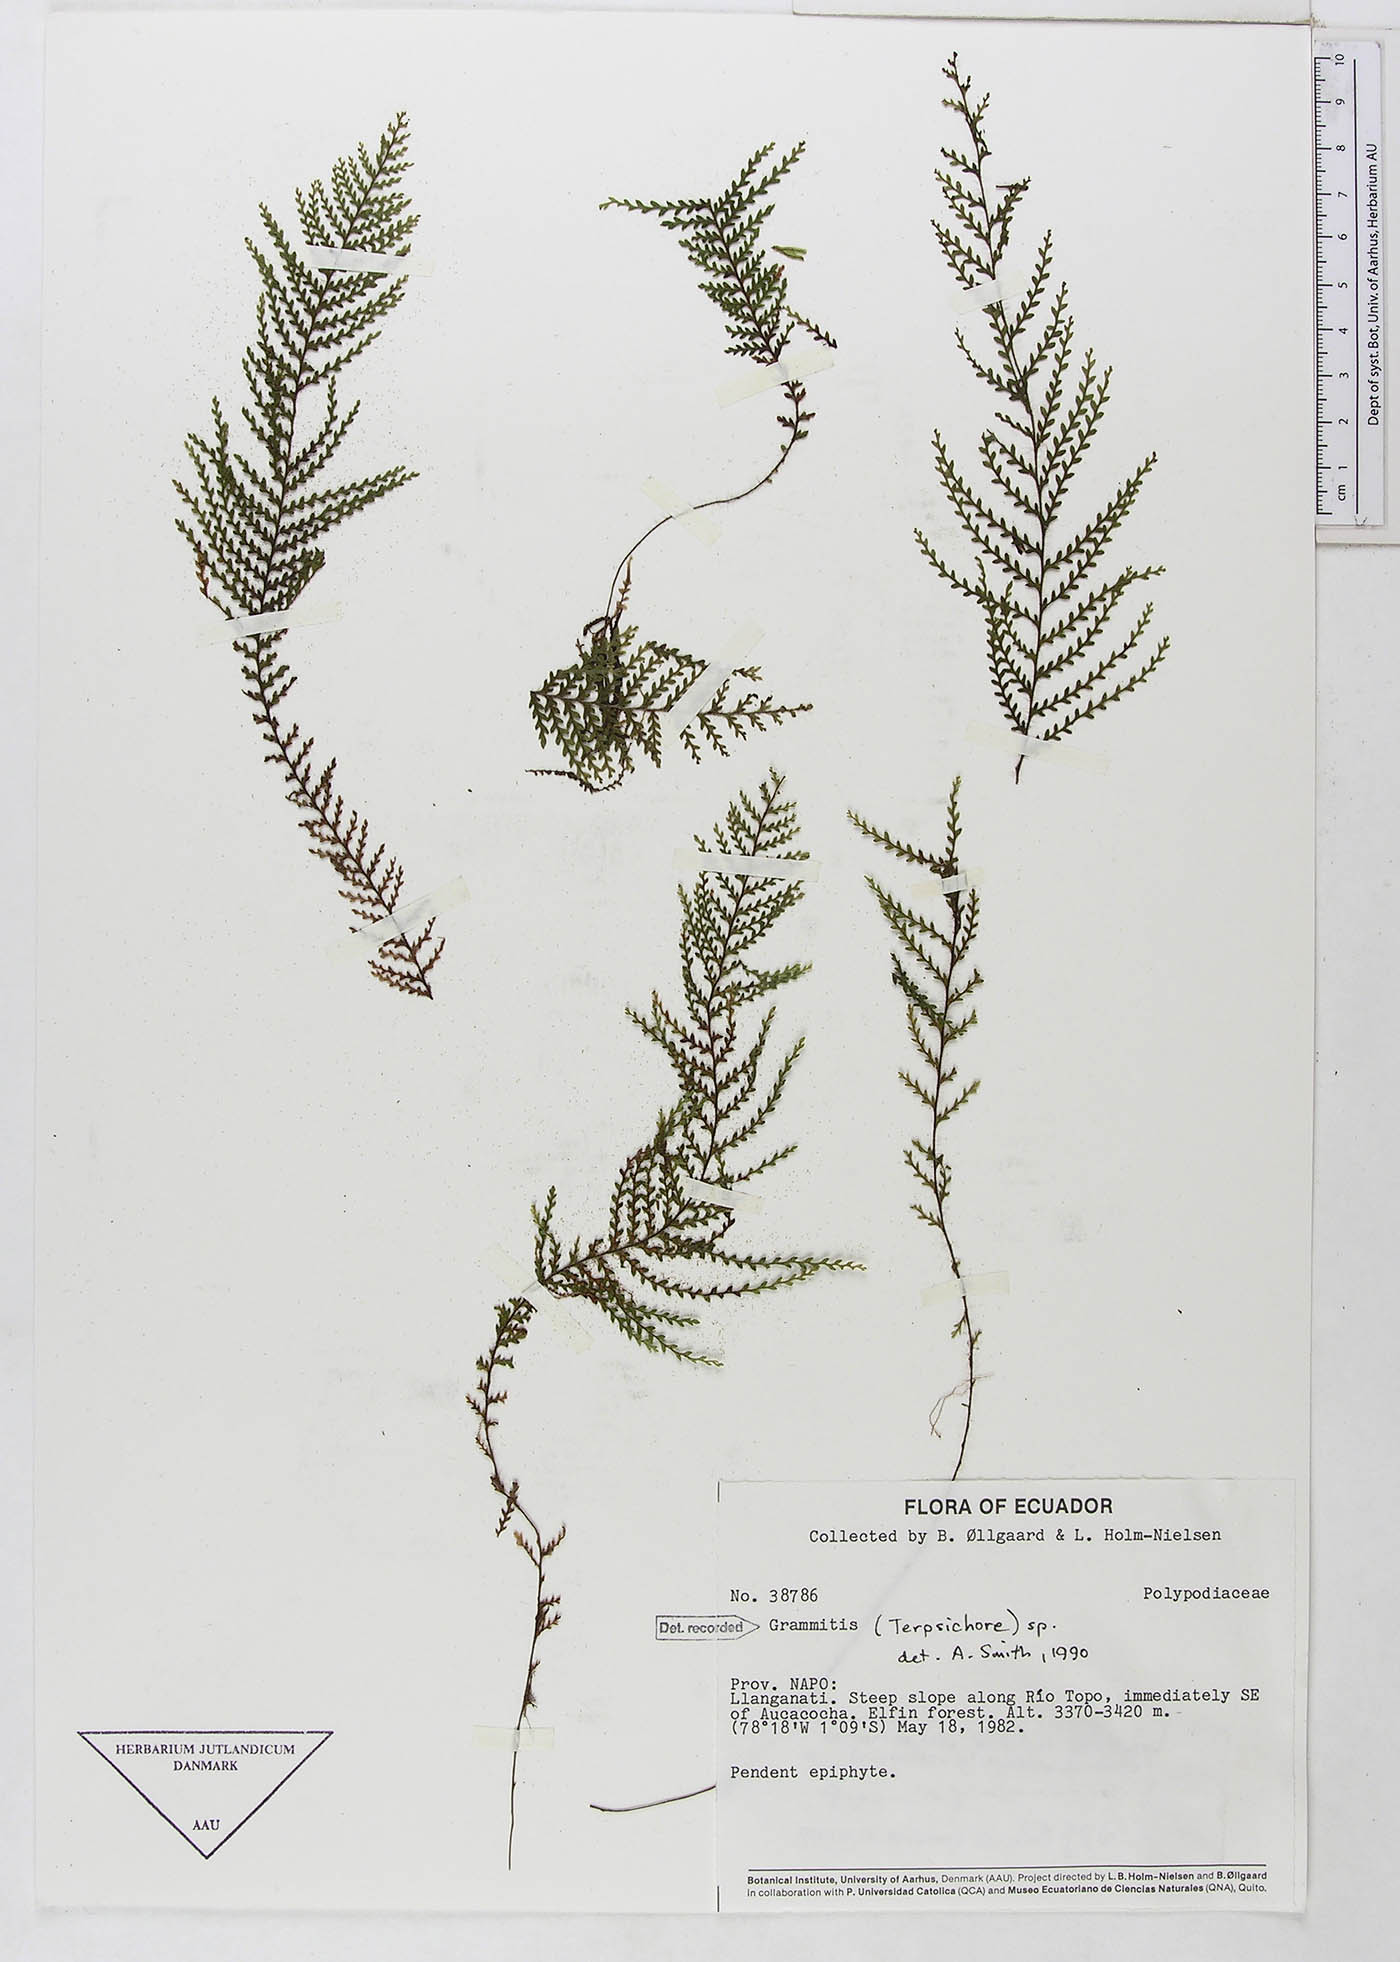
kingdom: Plantae
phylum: Tracheophyta
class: Polypodiopsida
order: Polypodiales
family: Polypodiaceae
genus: Moranopteris
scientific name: Moranopteris longisetosa
